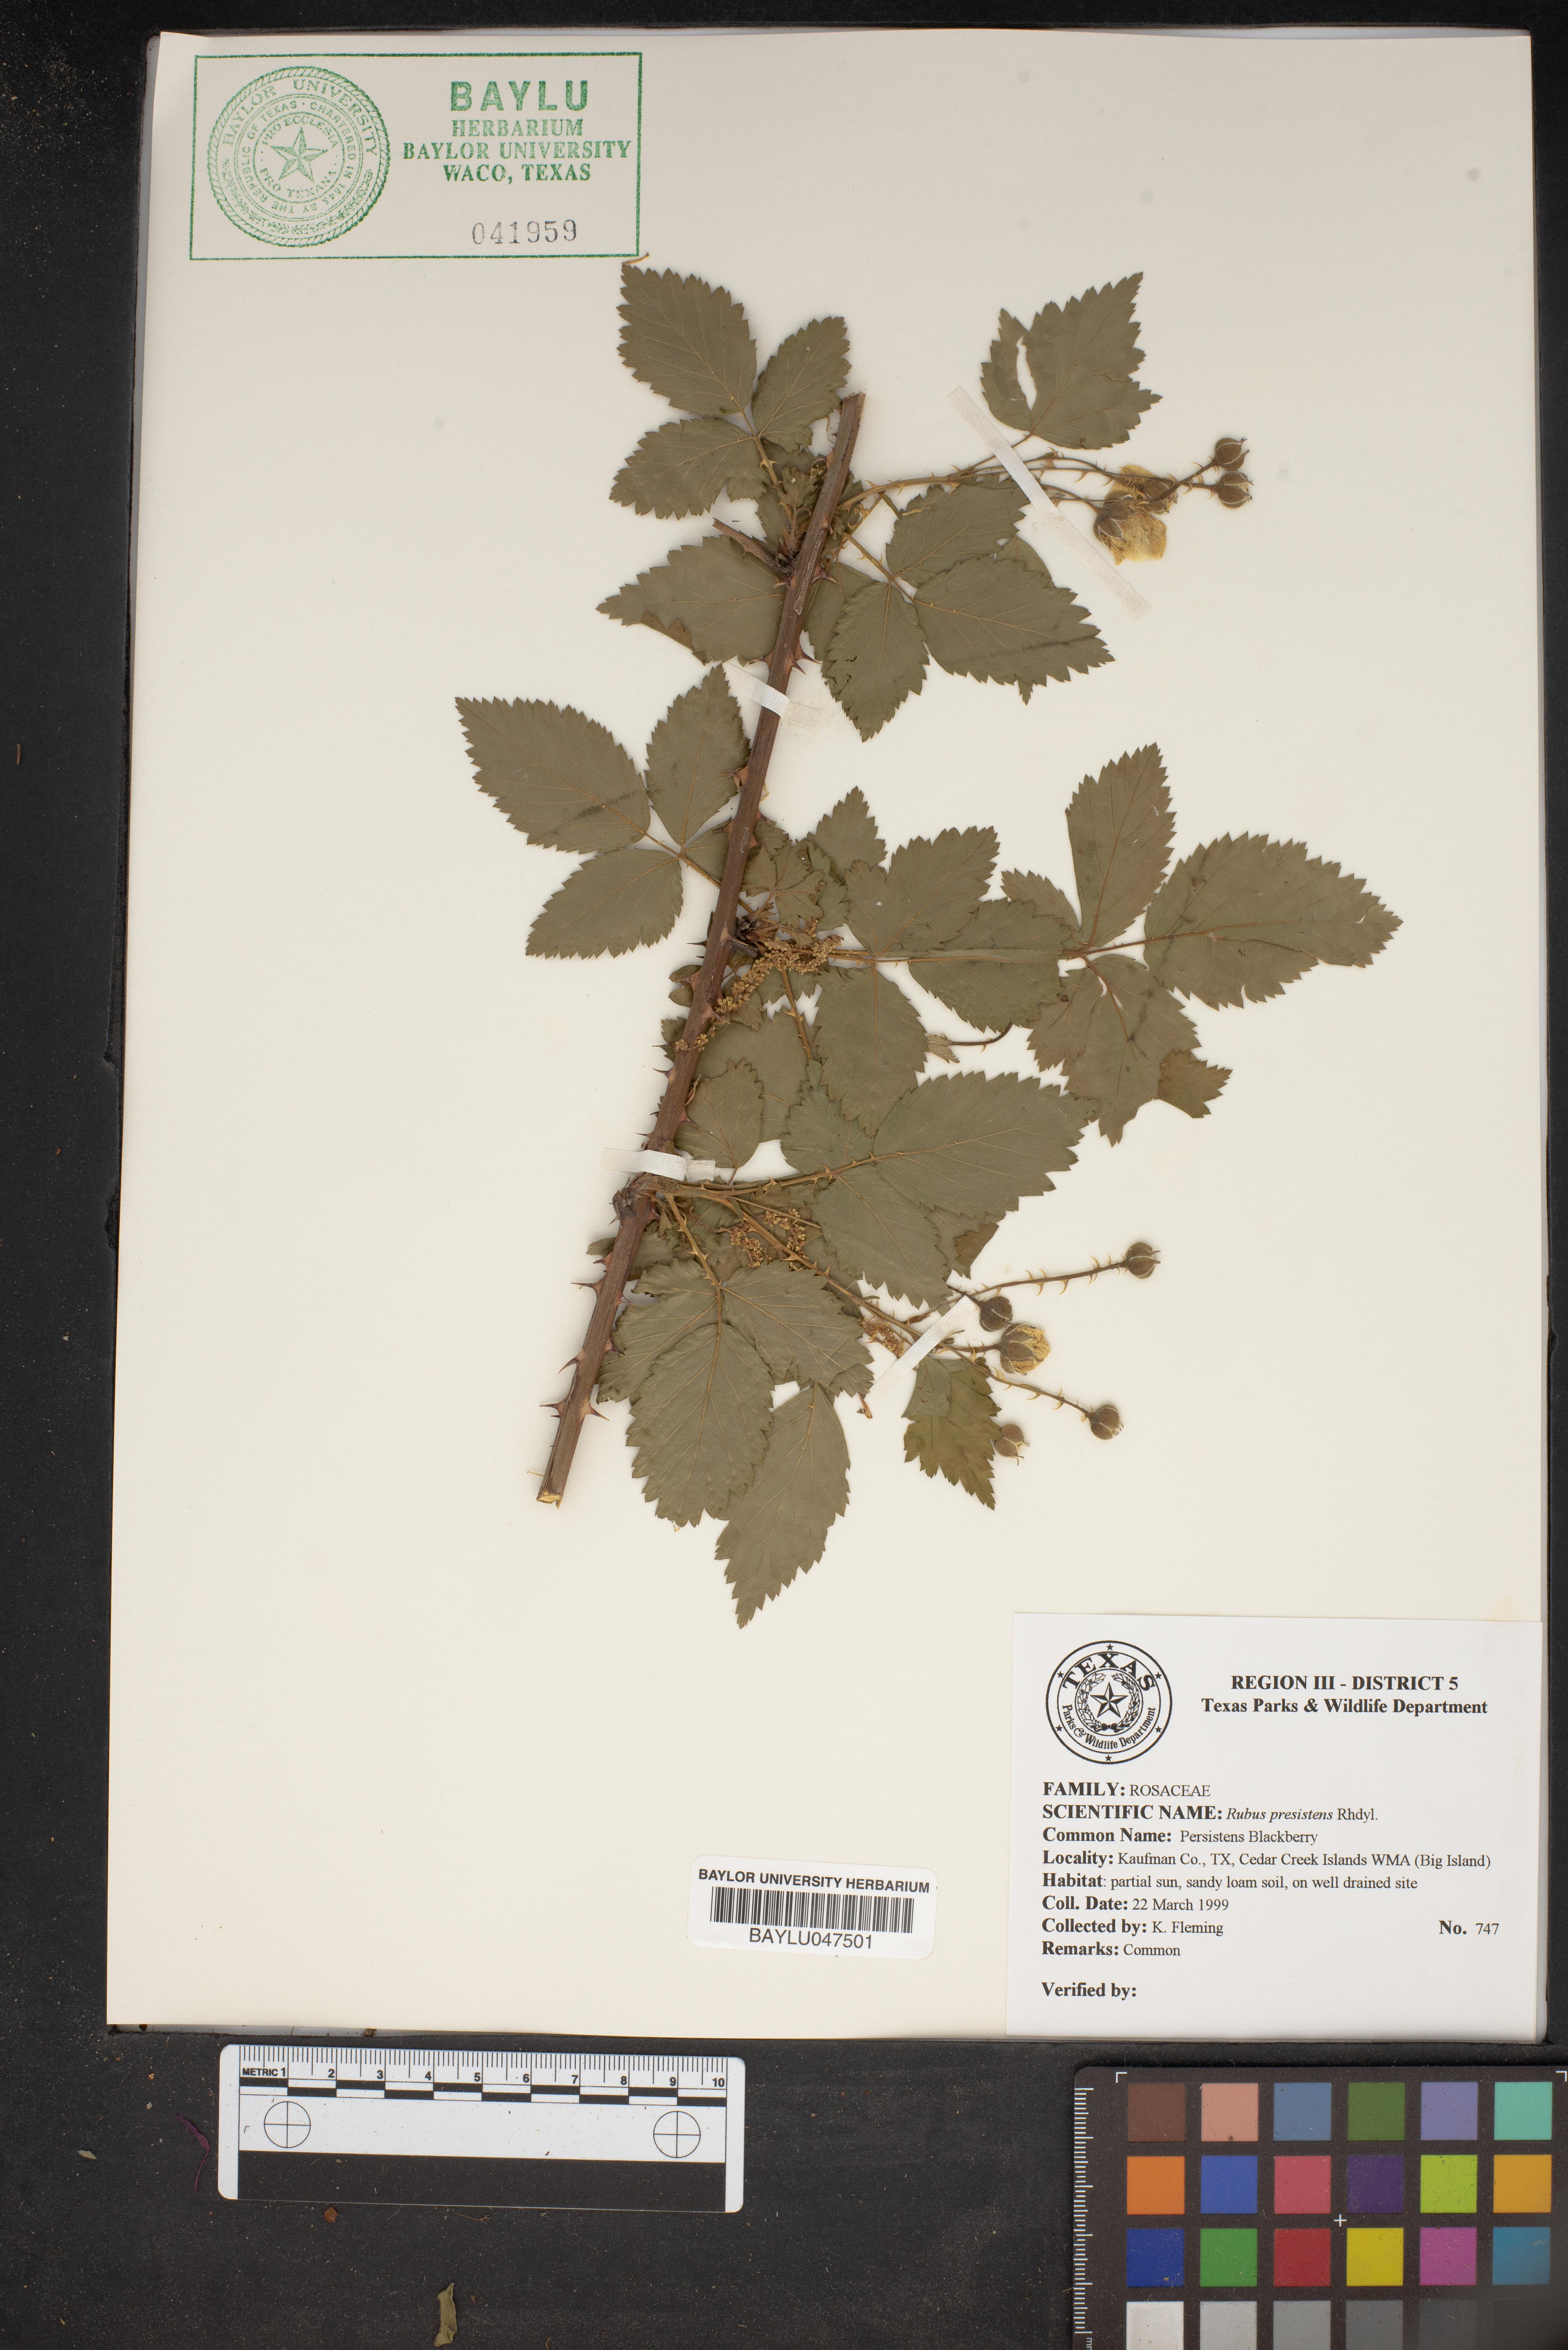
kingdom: Plantae
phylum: Tracheophyta
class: Magnoliopsida
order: Rosales
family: Rosaceae
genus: Rubus
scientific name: Rubus persistens
